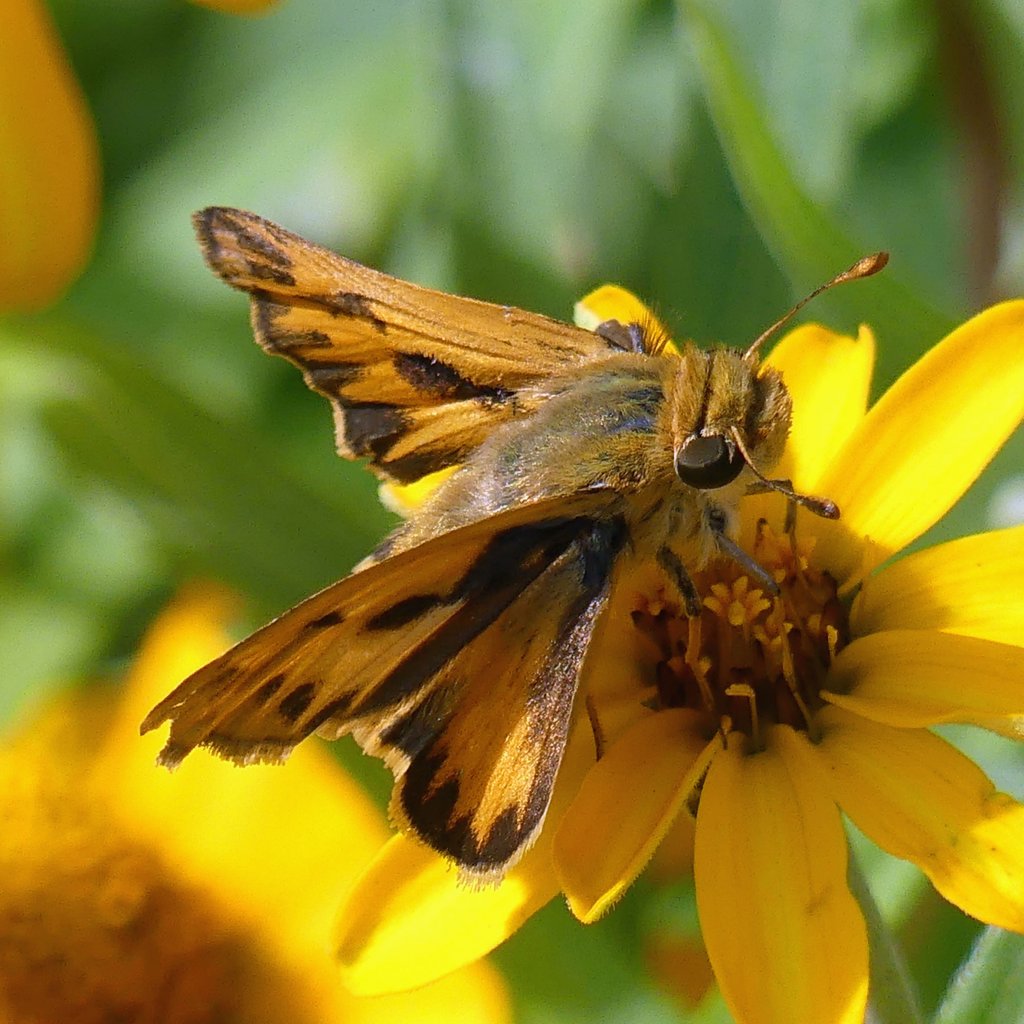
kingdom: Animalia
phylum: Arthropoda
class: Insecta
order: Lepidoptera
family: Hesperiidae
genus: Hylephila
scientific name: Hylephila phyleus
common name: Fiery Skipper
